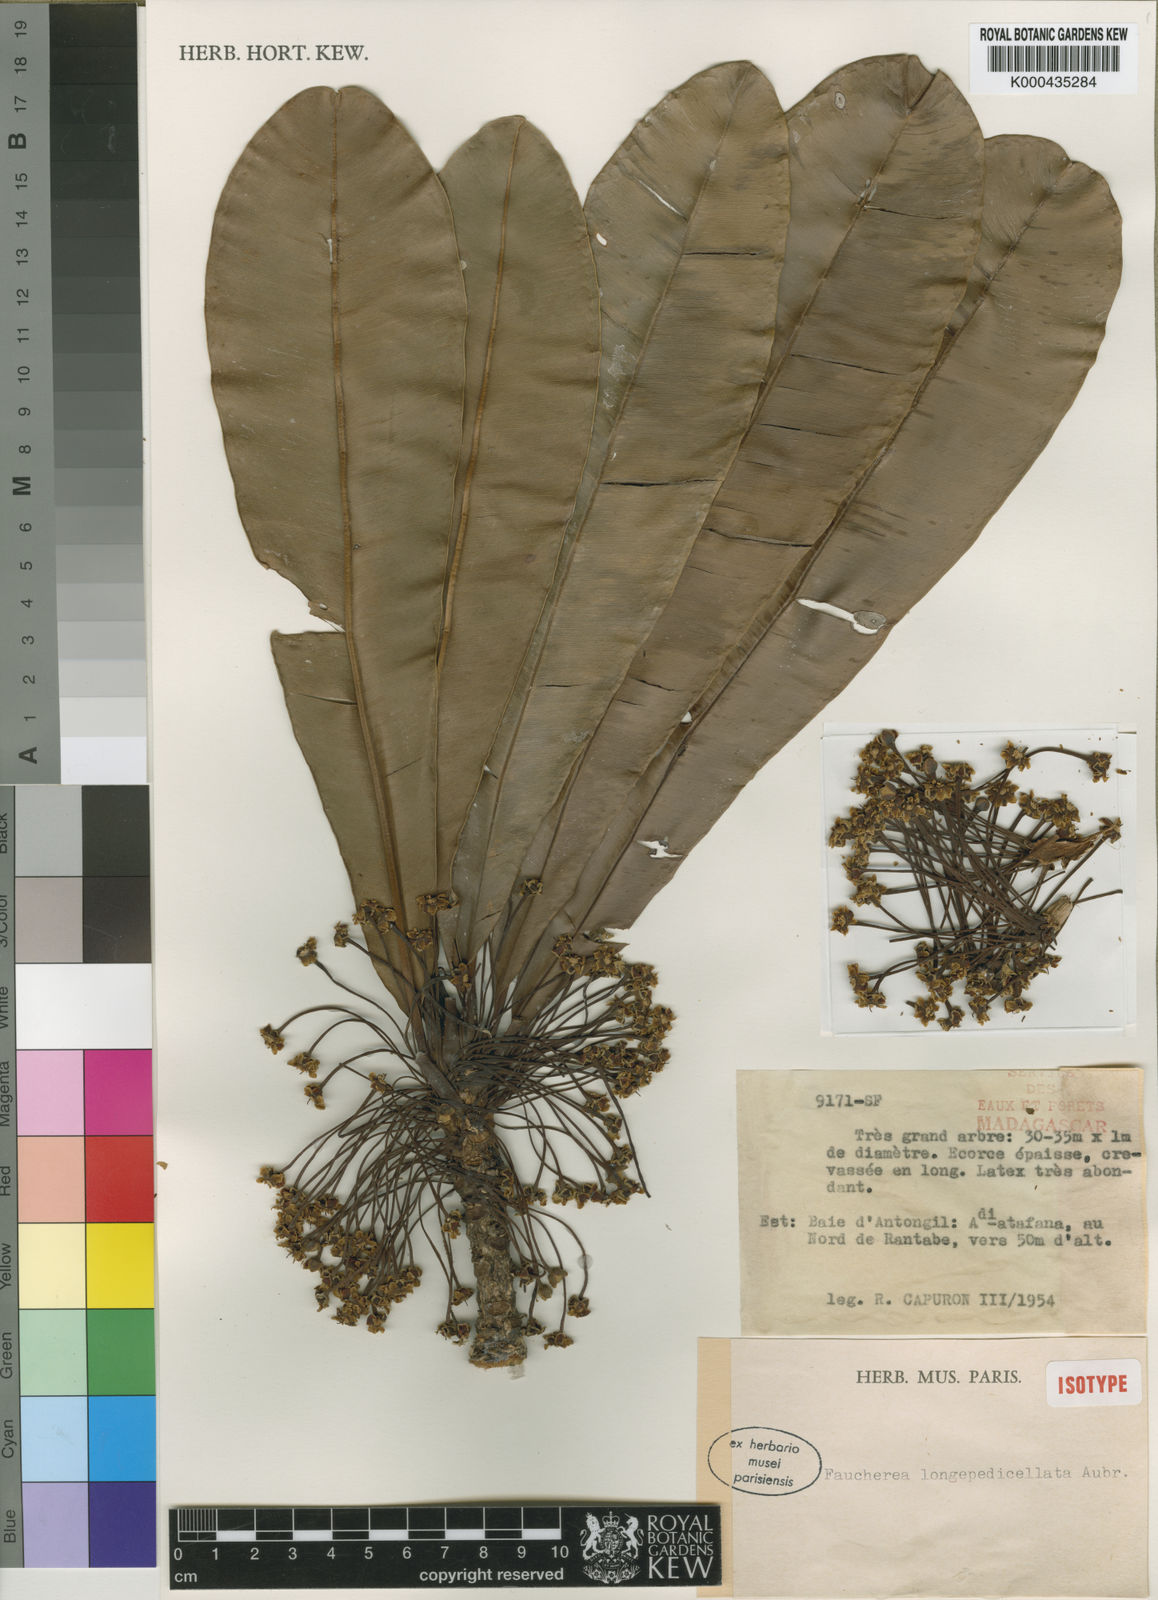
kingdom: Plantae
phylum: Tracheophyta
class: Magnoliopsida
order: Ericales
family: Sapotaceae
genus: Faucherea
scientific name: Faucherea longepedicellata
